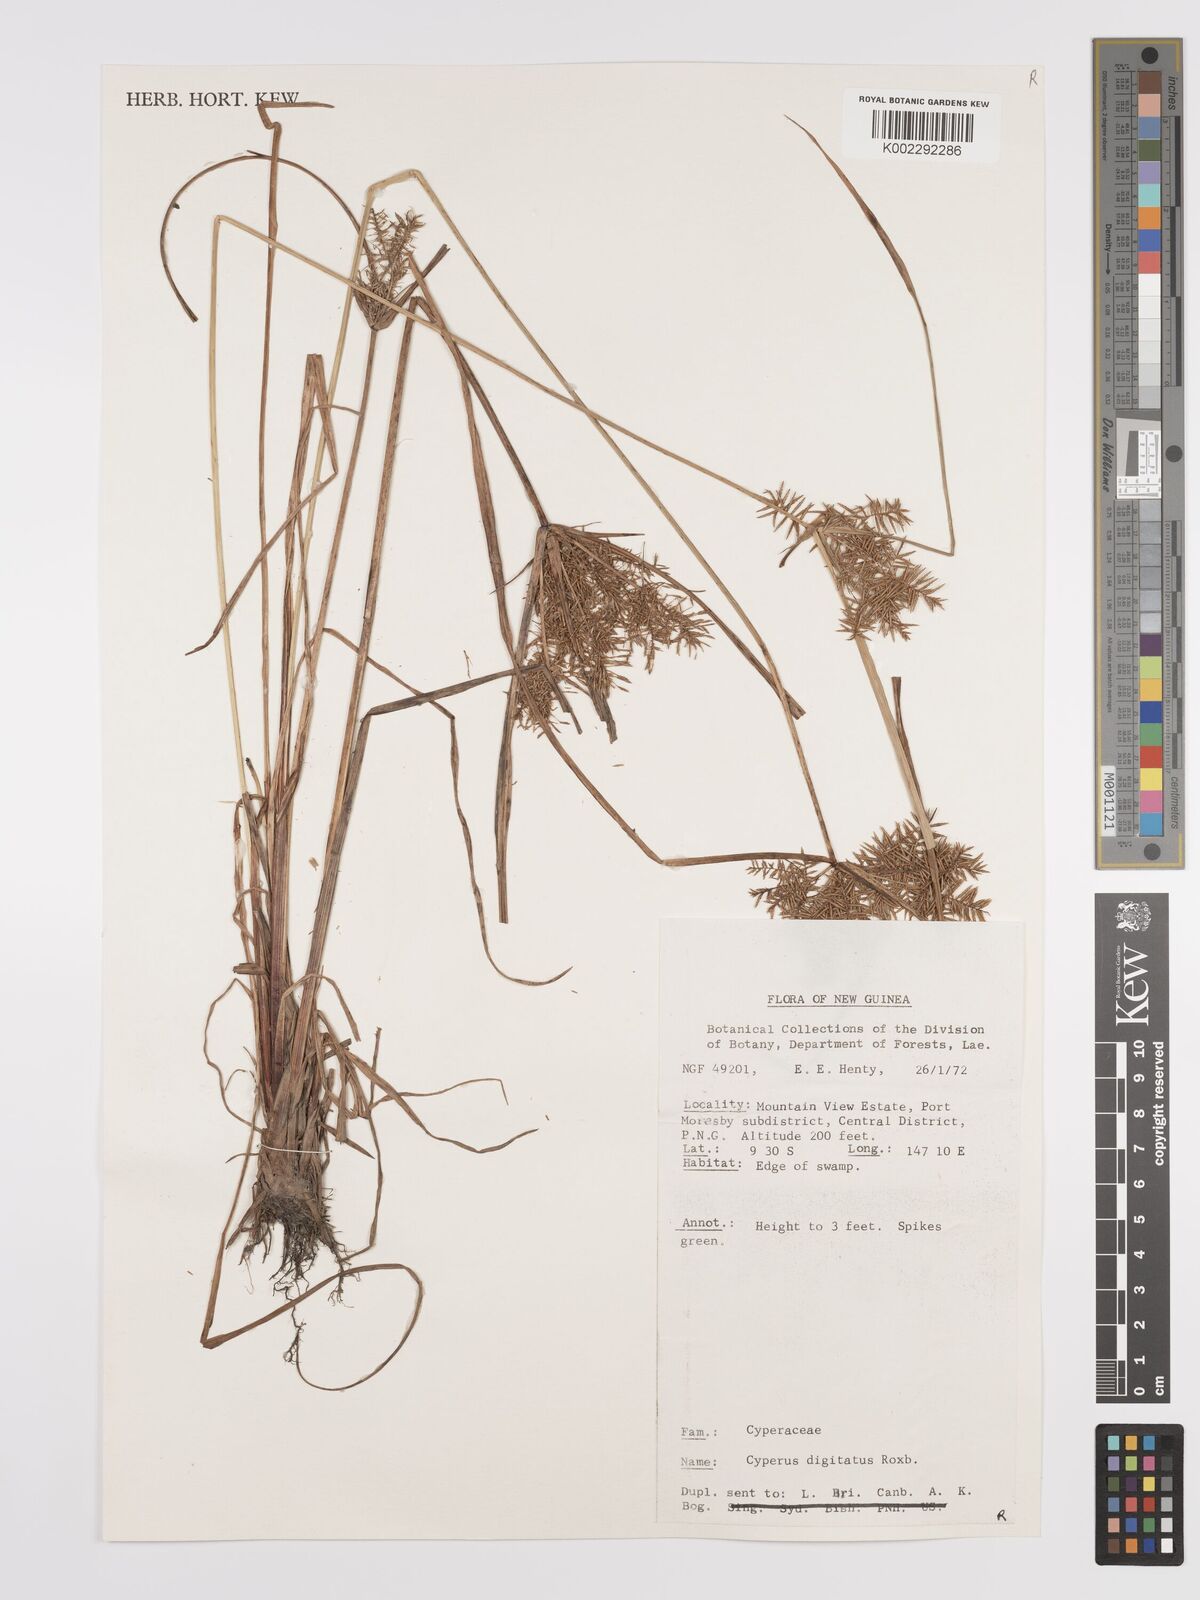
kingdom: Plantae
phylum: Tracheophyta
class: Liliopsida
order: Poales
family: Cyperaceae
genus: Cyperus
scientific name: Cyperus digitatus
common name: Finger flatsedge
